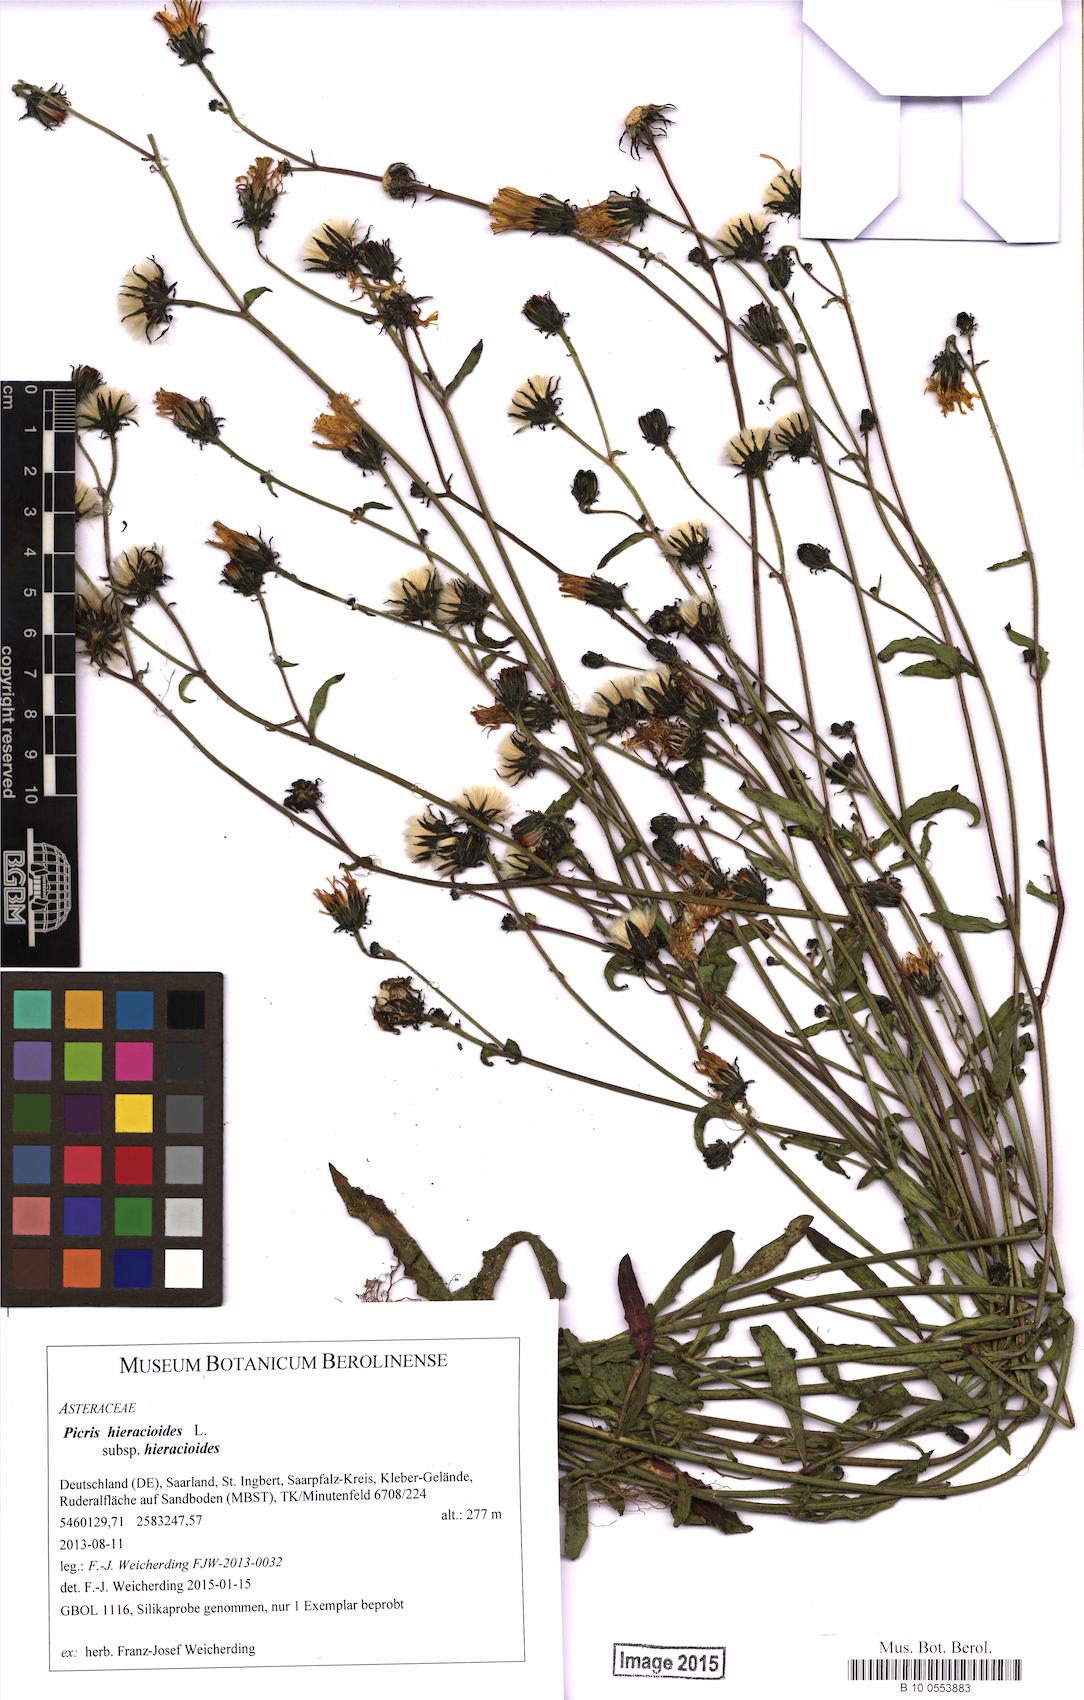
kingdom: Plantae
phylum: Tracheophyta
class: Magnoliopsida
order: Asterales
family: Asteraceae
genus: Picris
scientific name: Picris hieracioides
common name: Hawkweed oxtongue
